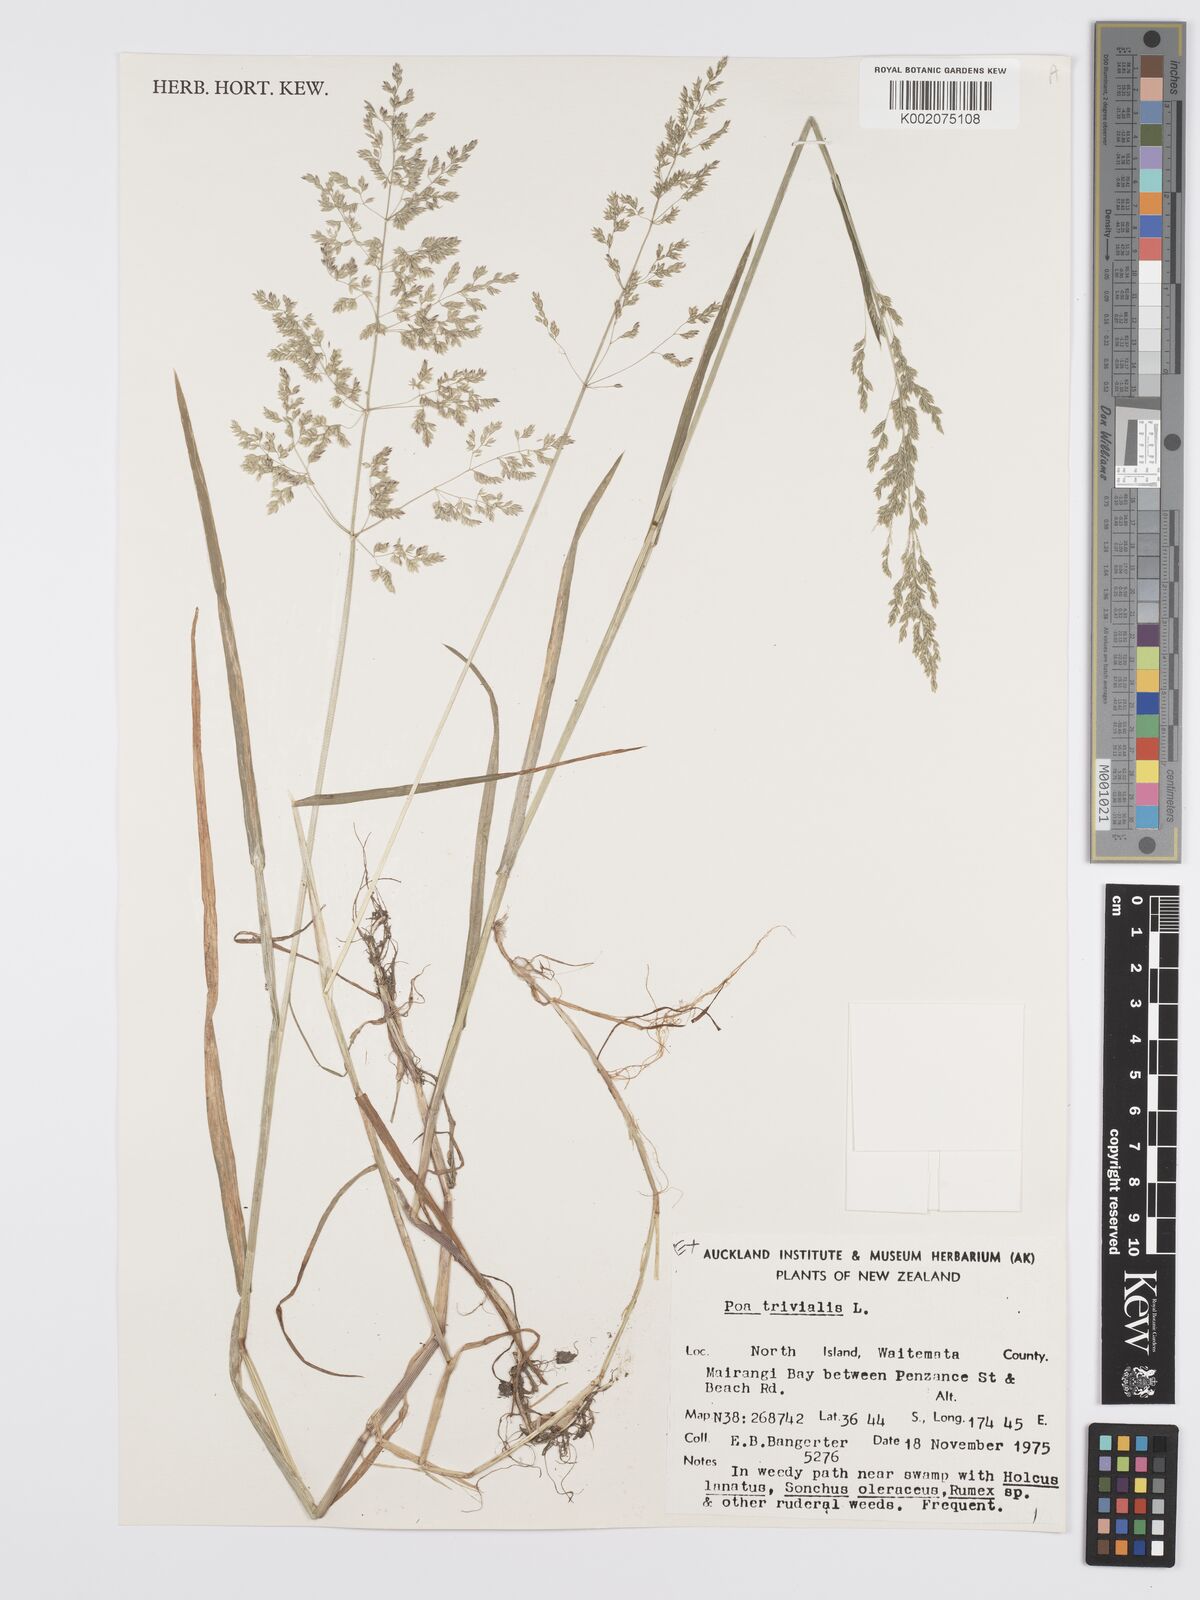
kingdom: Plantae
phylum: Tracheophyta
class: Liliopsida
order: Poales
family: Poaceae
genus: Poa
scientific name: Poa trivialis
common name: Rough bluegrass
